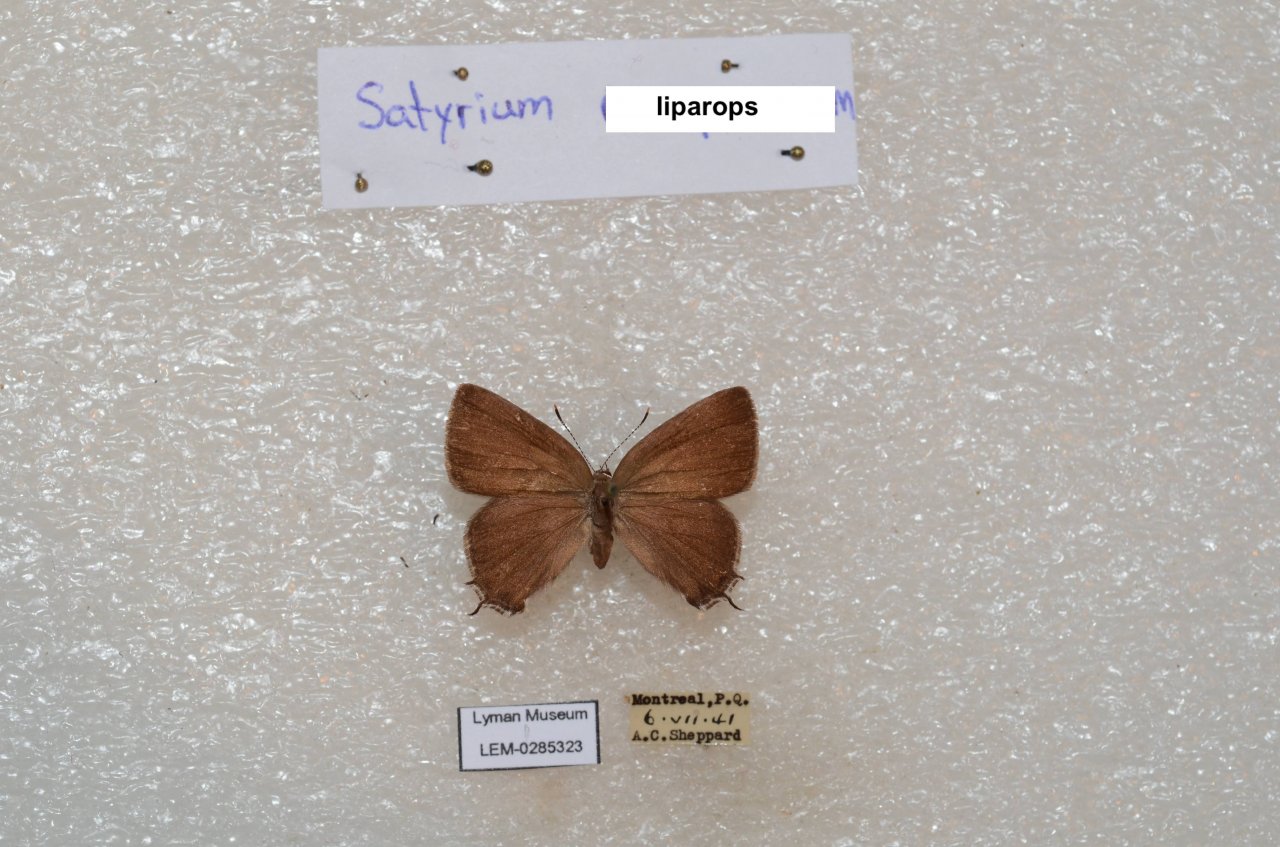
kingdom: Animalia
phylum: Arthropoda
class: Insecta
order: Lepidoptera
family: Lycaenidae
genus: Satyrium
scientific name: Satyrium liparops
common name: Striped Hairstreak
